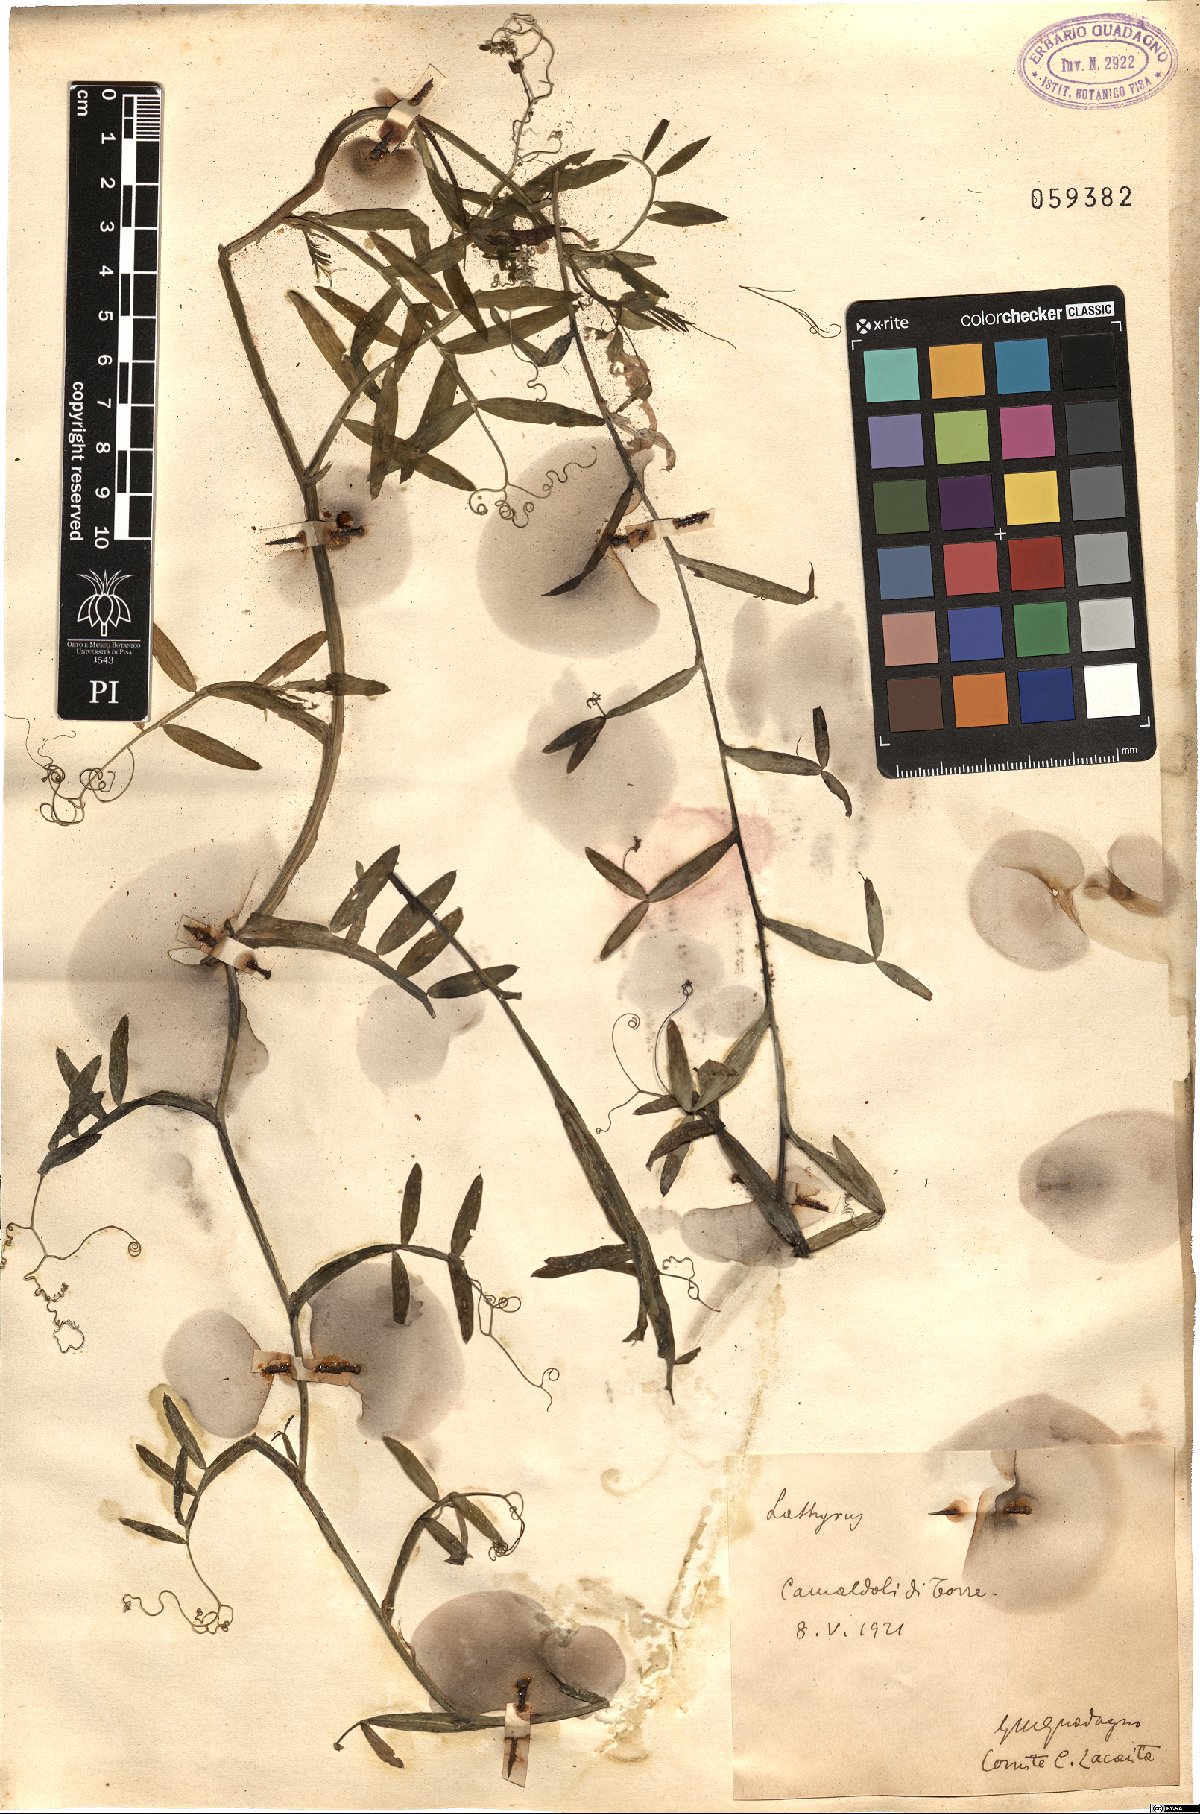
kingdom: Plantae
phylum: Tracheophyta
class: Magnoliopsida
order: Fabales
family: Fabaceae
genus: Lathyrus
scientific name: Lathyrus
